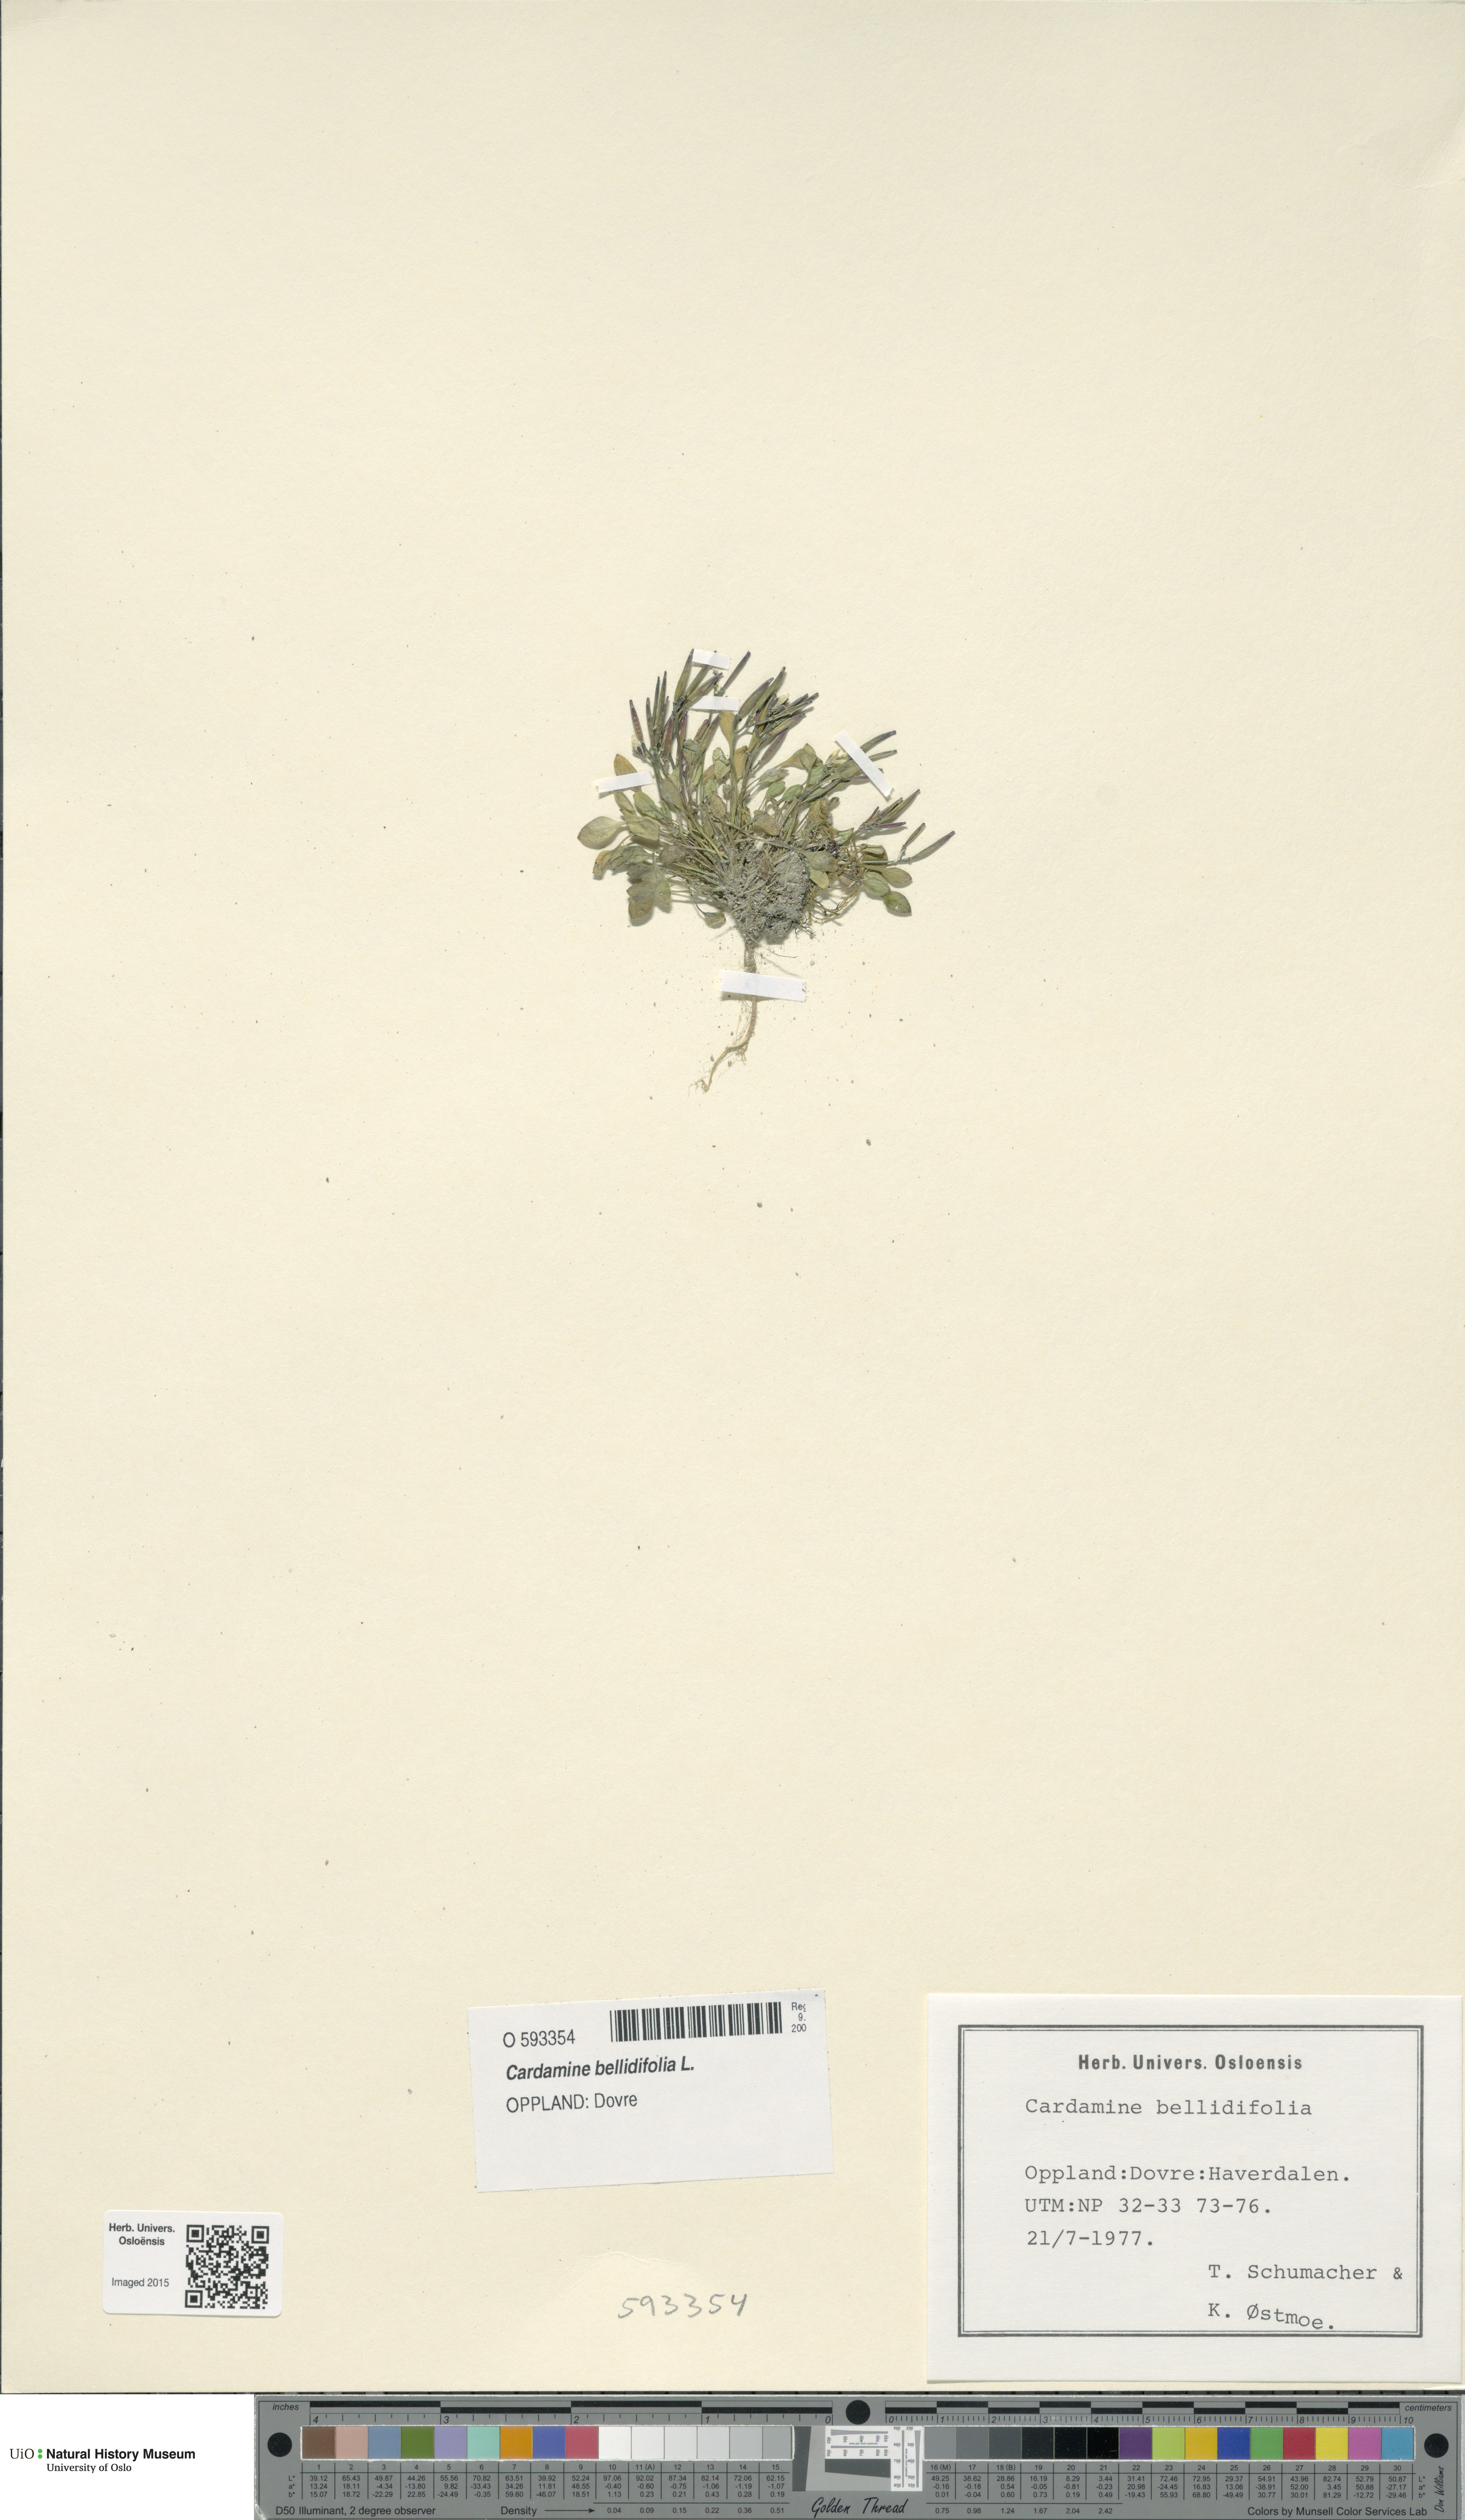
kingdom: Plantae
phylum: Tracheophyta
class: Magnoliopsida
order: Brassicales
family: Brassicaceae
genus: Cardamine
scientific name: Cardamine bellidifolia
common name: Alpine bittercress
